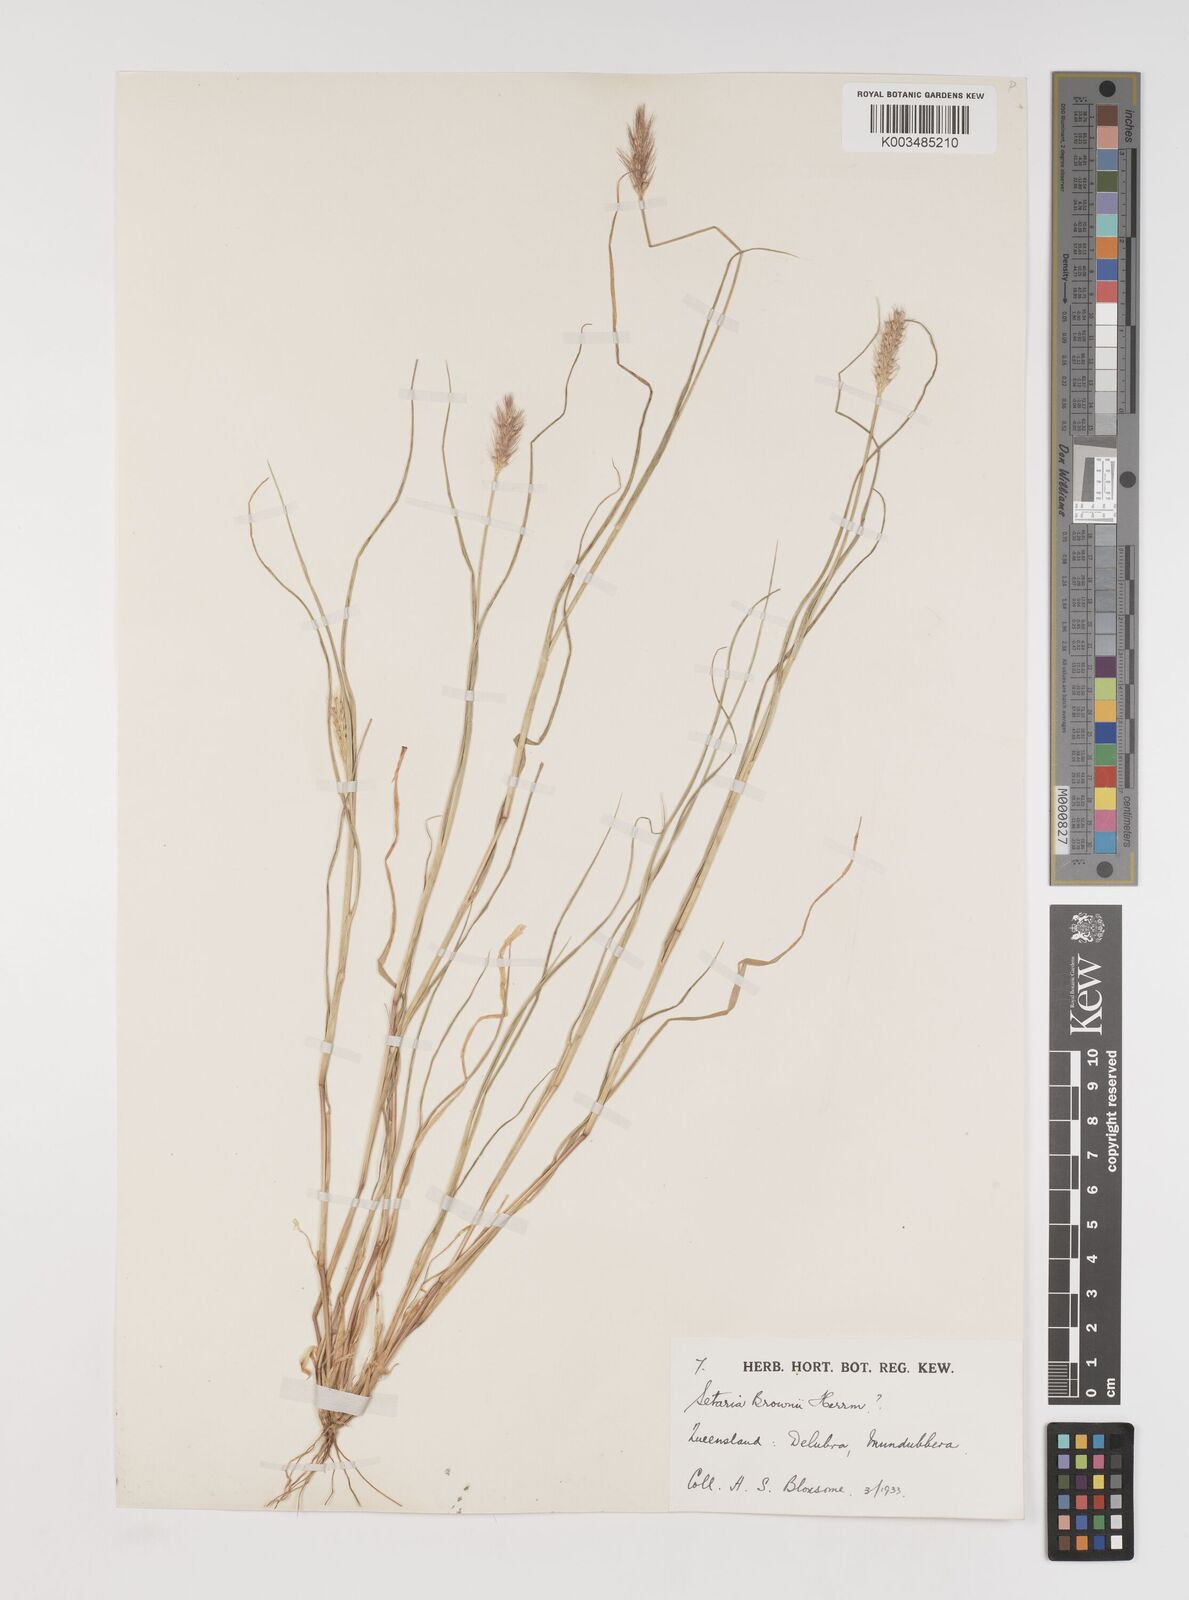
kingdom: Plantae
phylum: Tracheophyta
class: Liliopsida
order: Poales
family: Poaceae
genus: Setaria
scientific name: Setaria surgens
